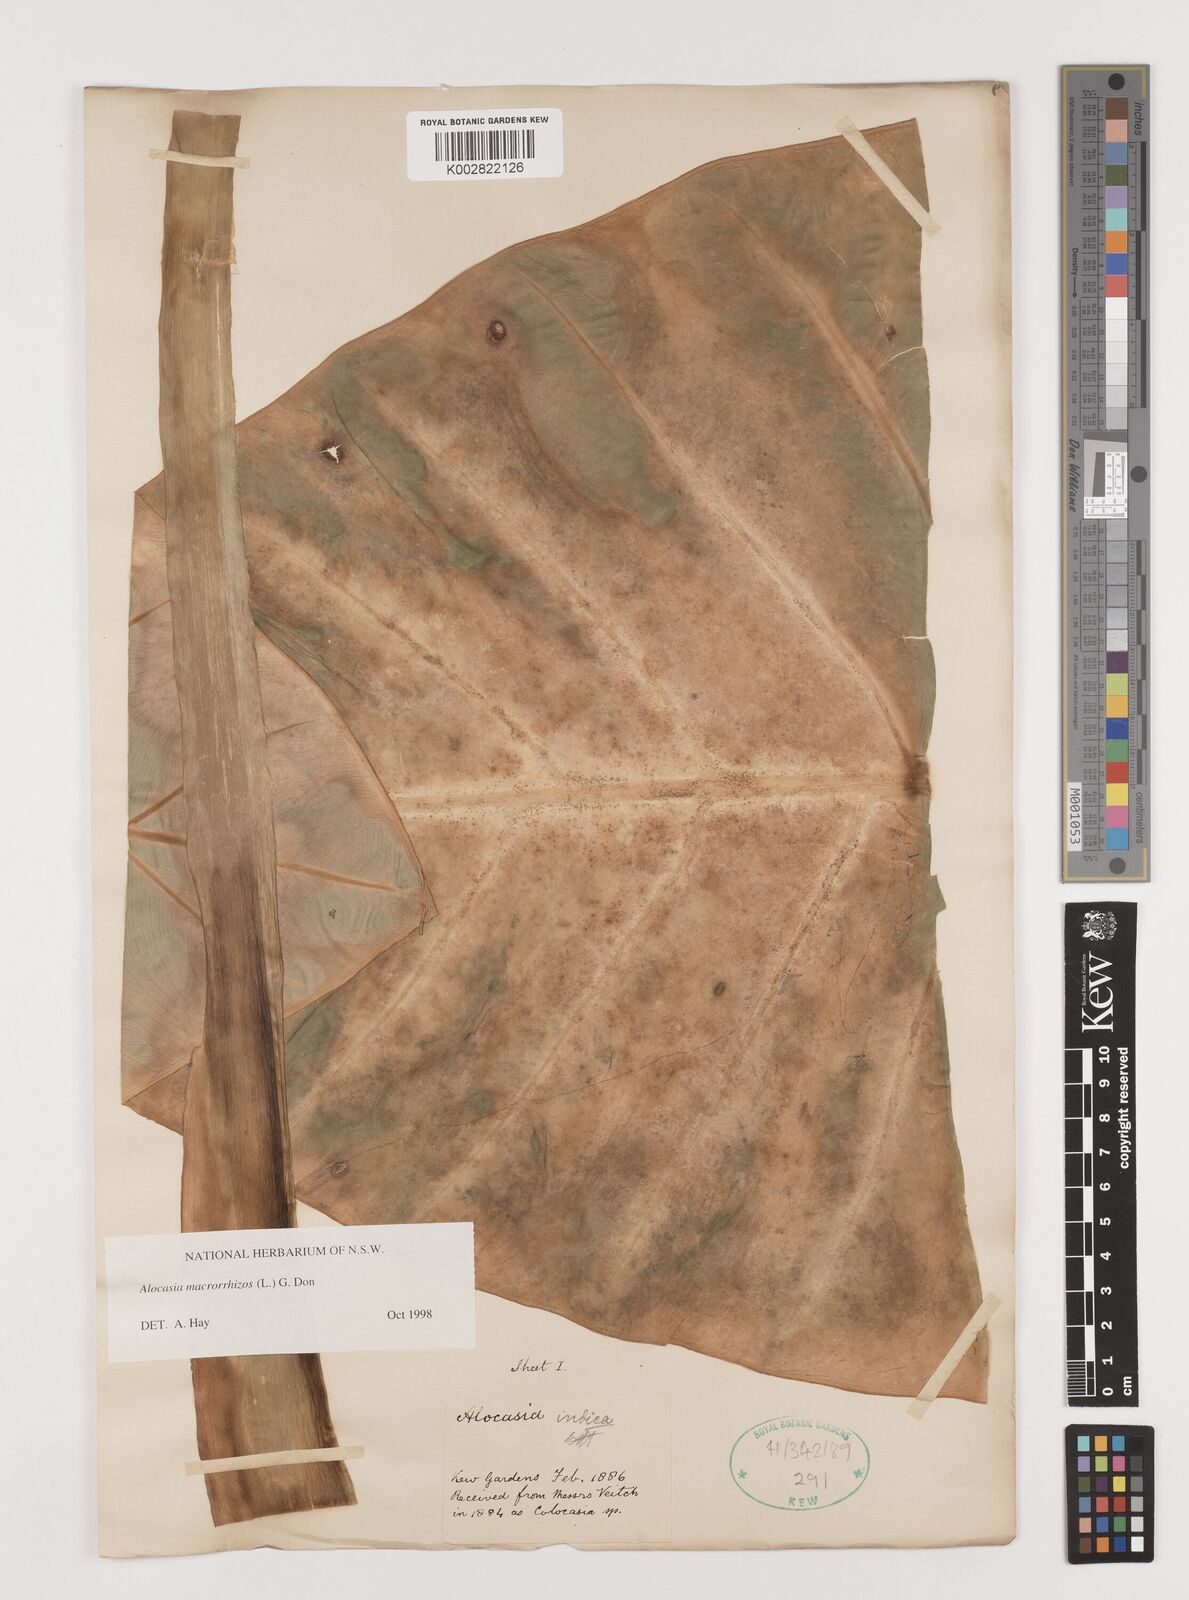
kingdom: Plantae
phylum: Tracheophyta
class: Liliopsida
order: Alismatales
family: Araceae
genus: Alocasia
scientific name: Alocasia macrorrhizos
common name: Giant taro
